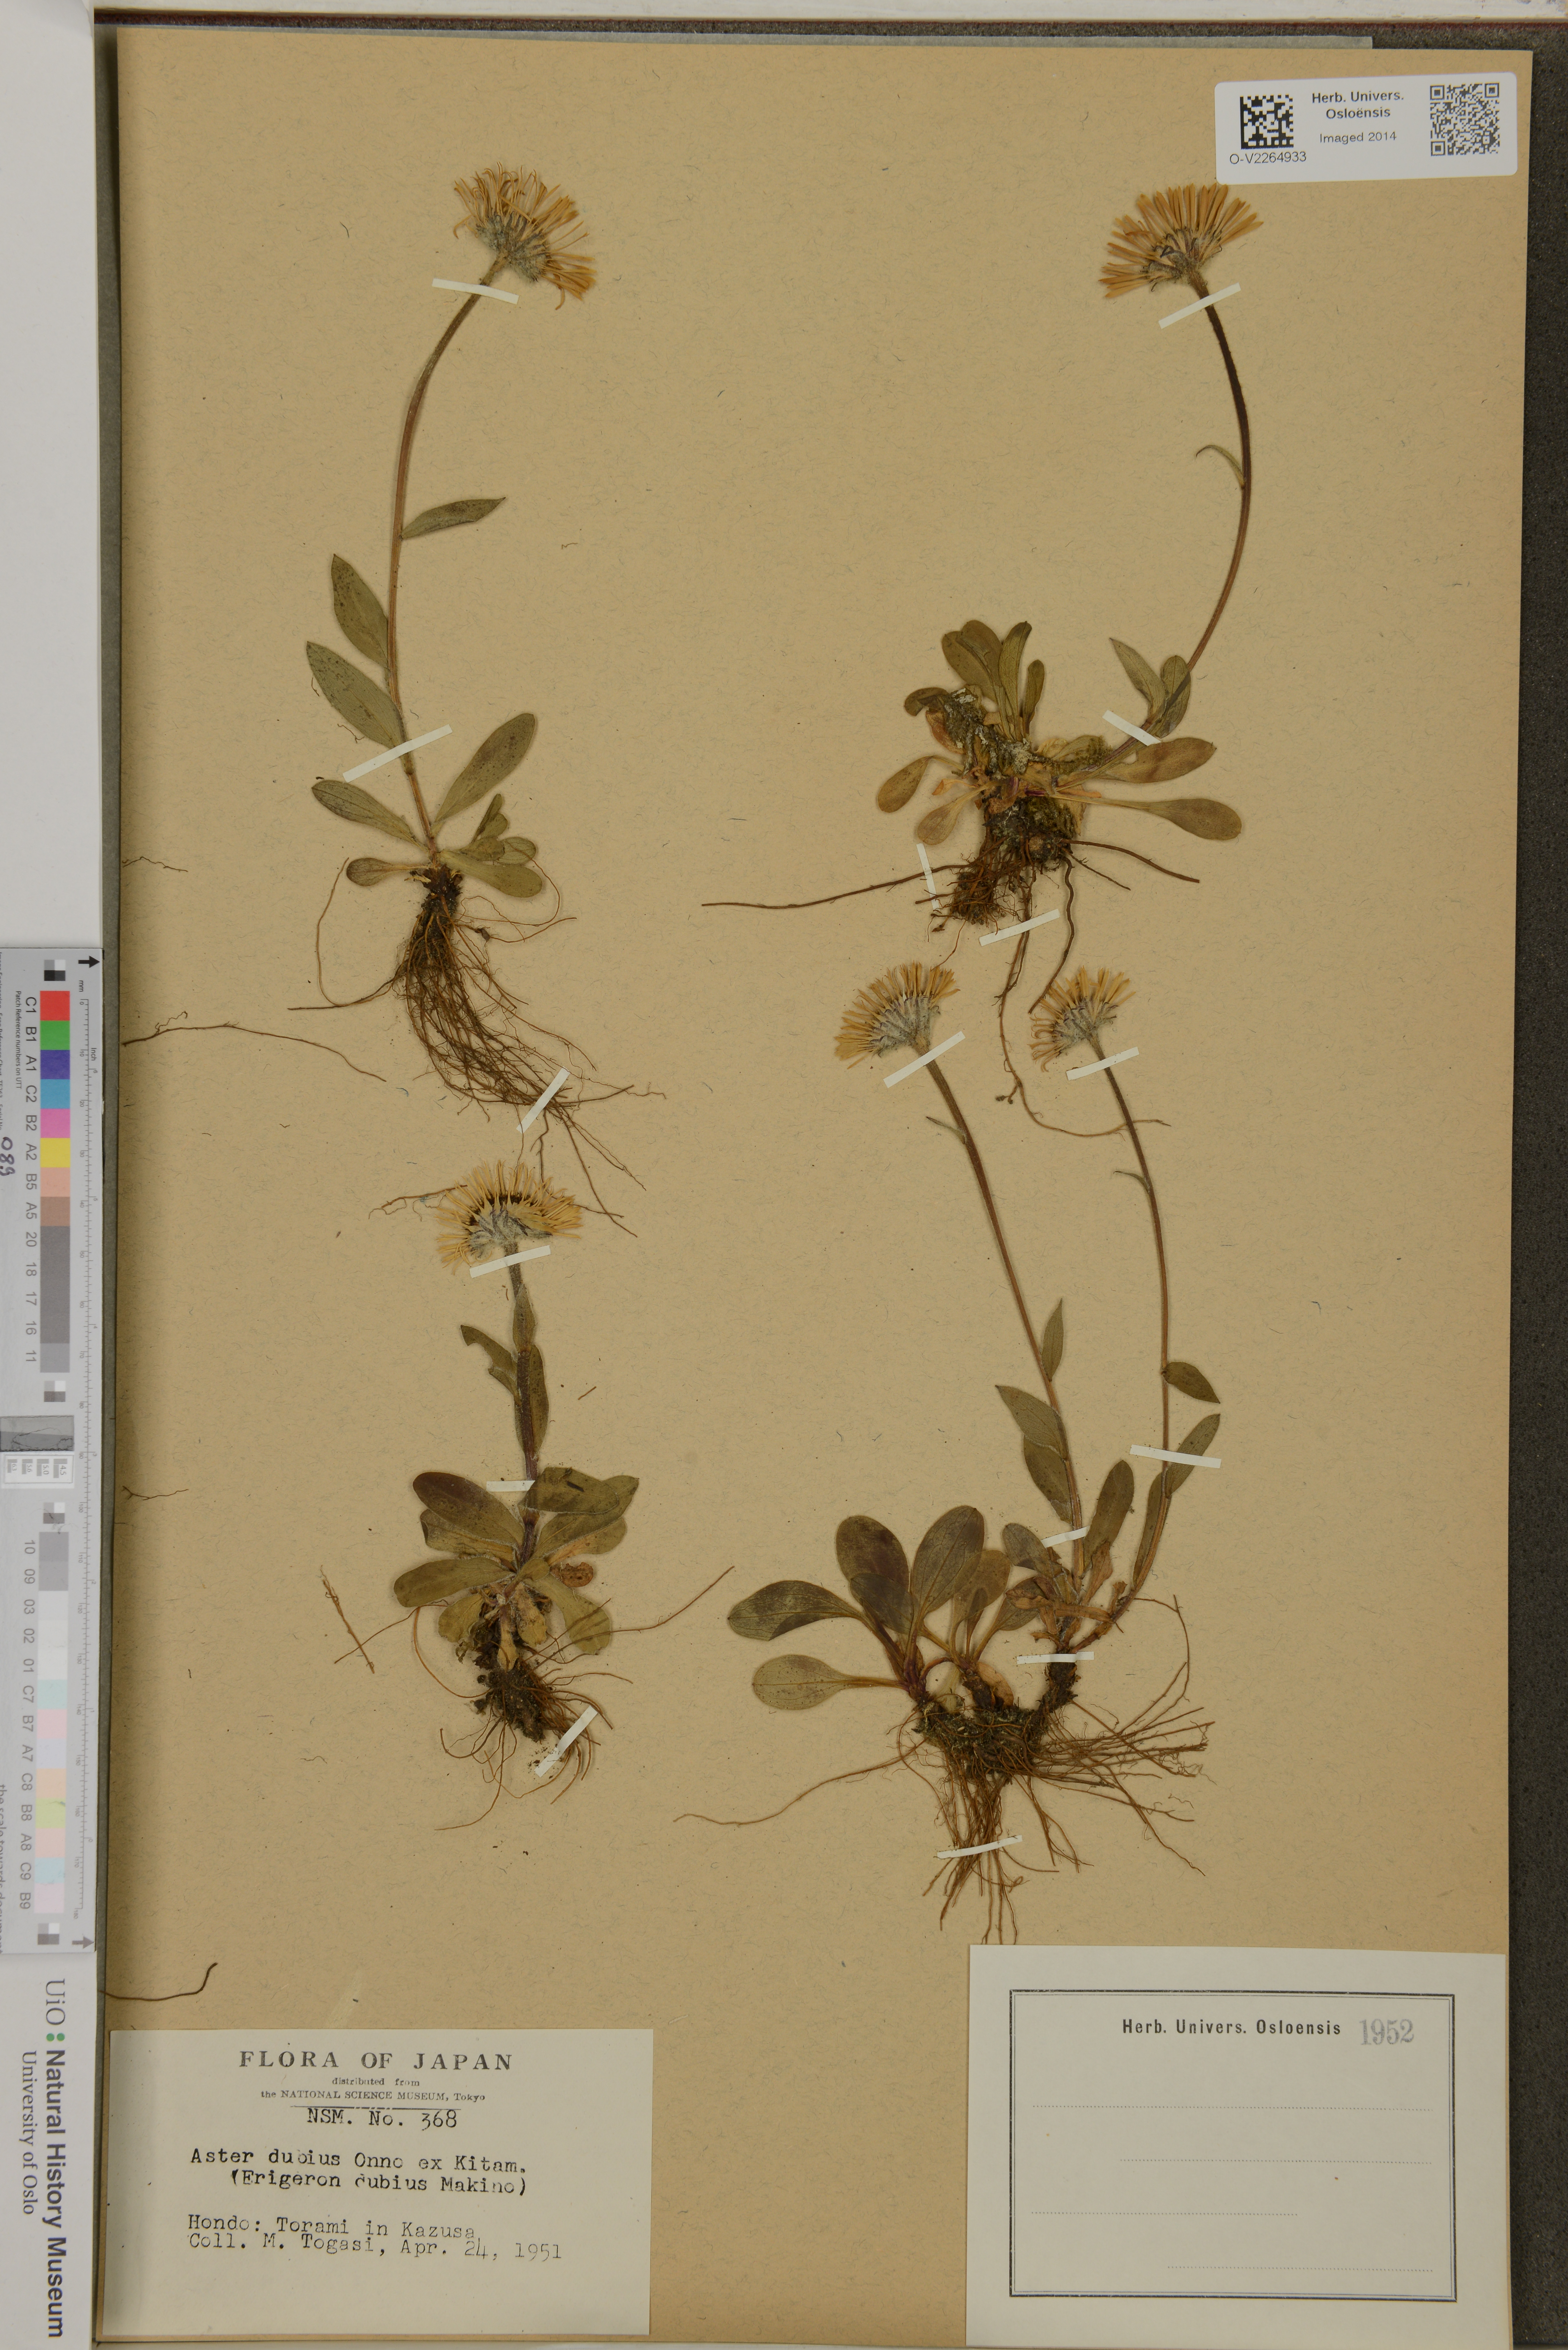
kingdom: Plantae
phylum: Tracheophyta
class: Magnoliopsida
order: Asterales
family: Asteraceae
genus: Erigeron
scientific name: Erigeron thunbergii
